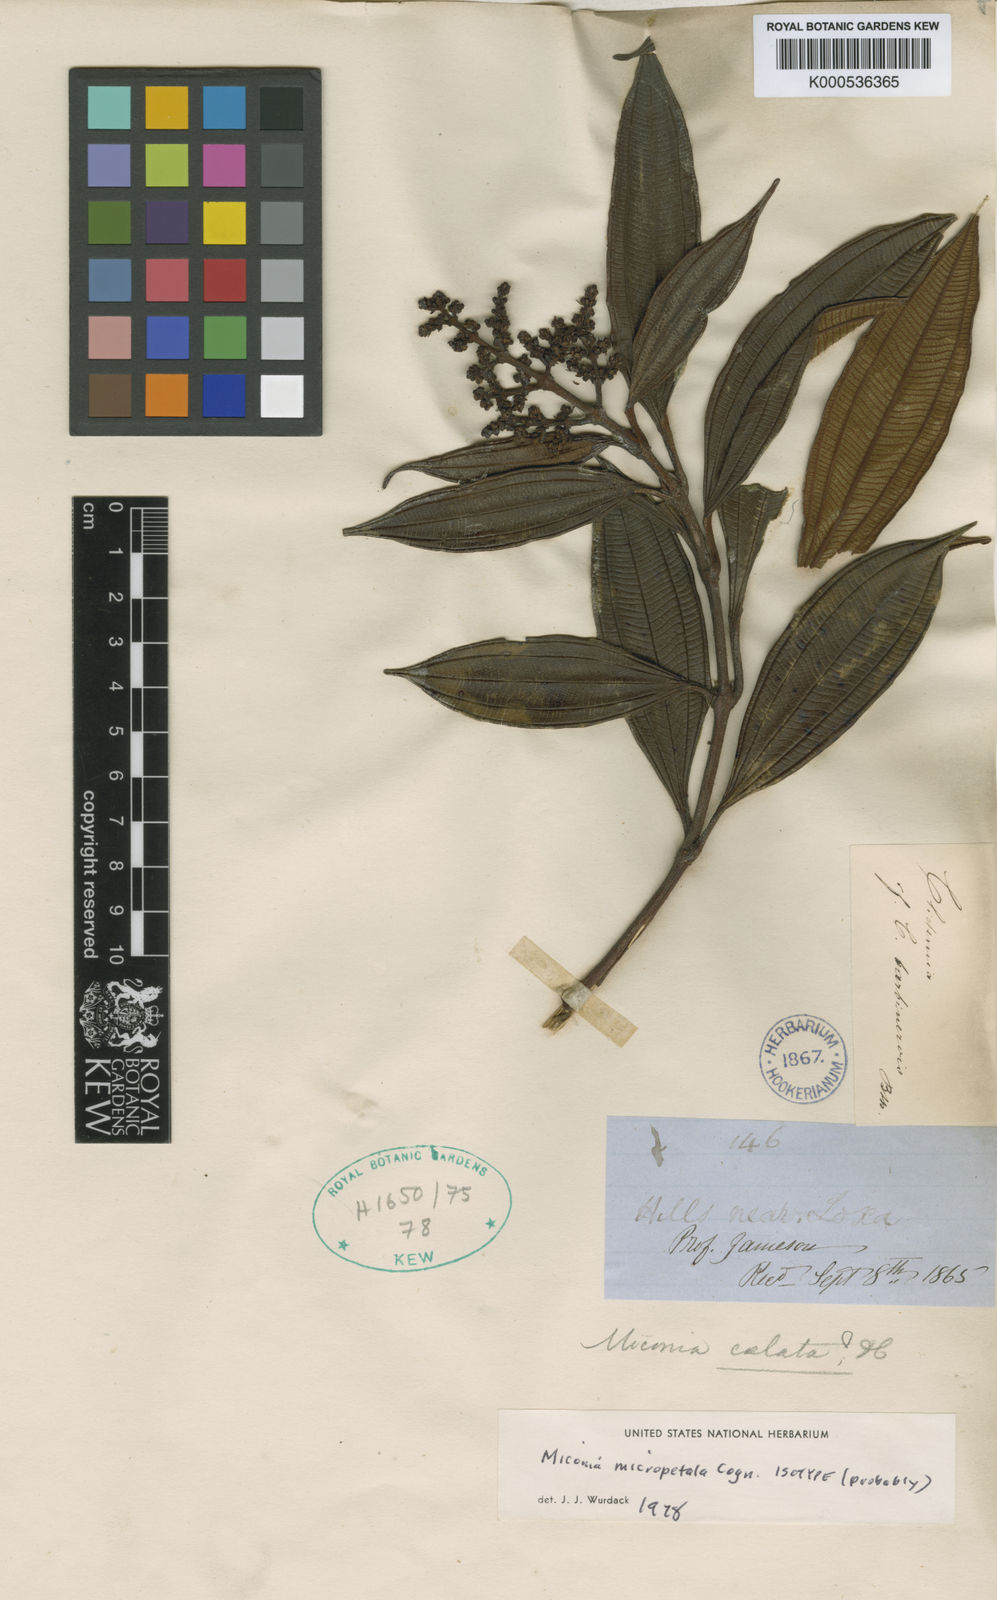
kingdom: Plantae
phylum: Tracheophyta
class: Magnoliopsida
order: Myrtales
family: Melastomataceae
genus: Miconia
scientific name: Miconia micropetala
